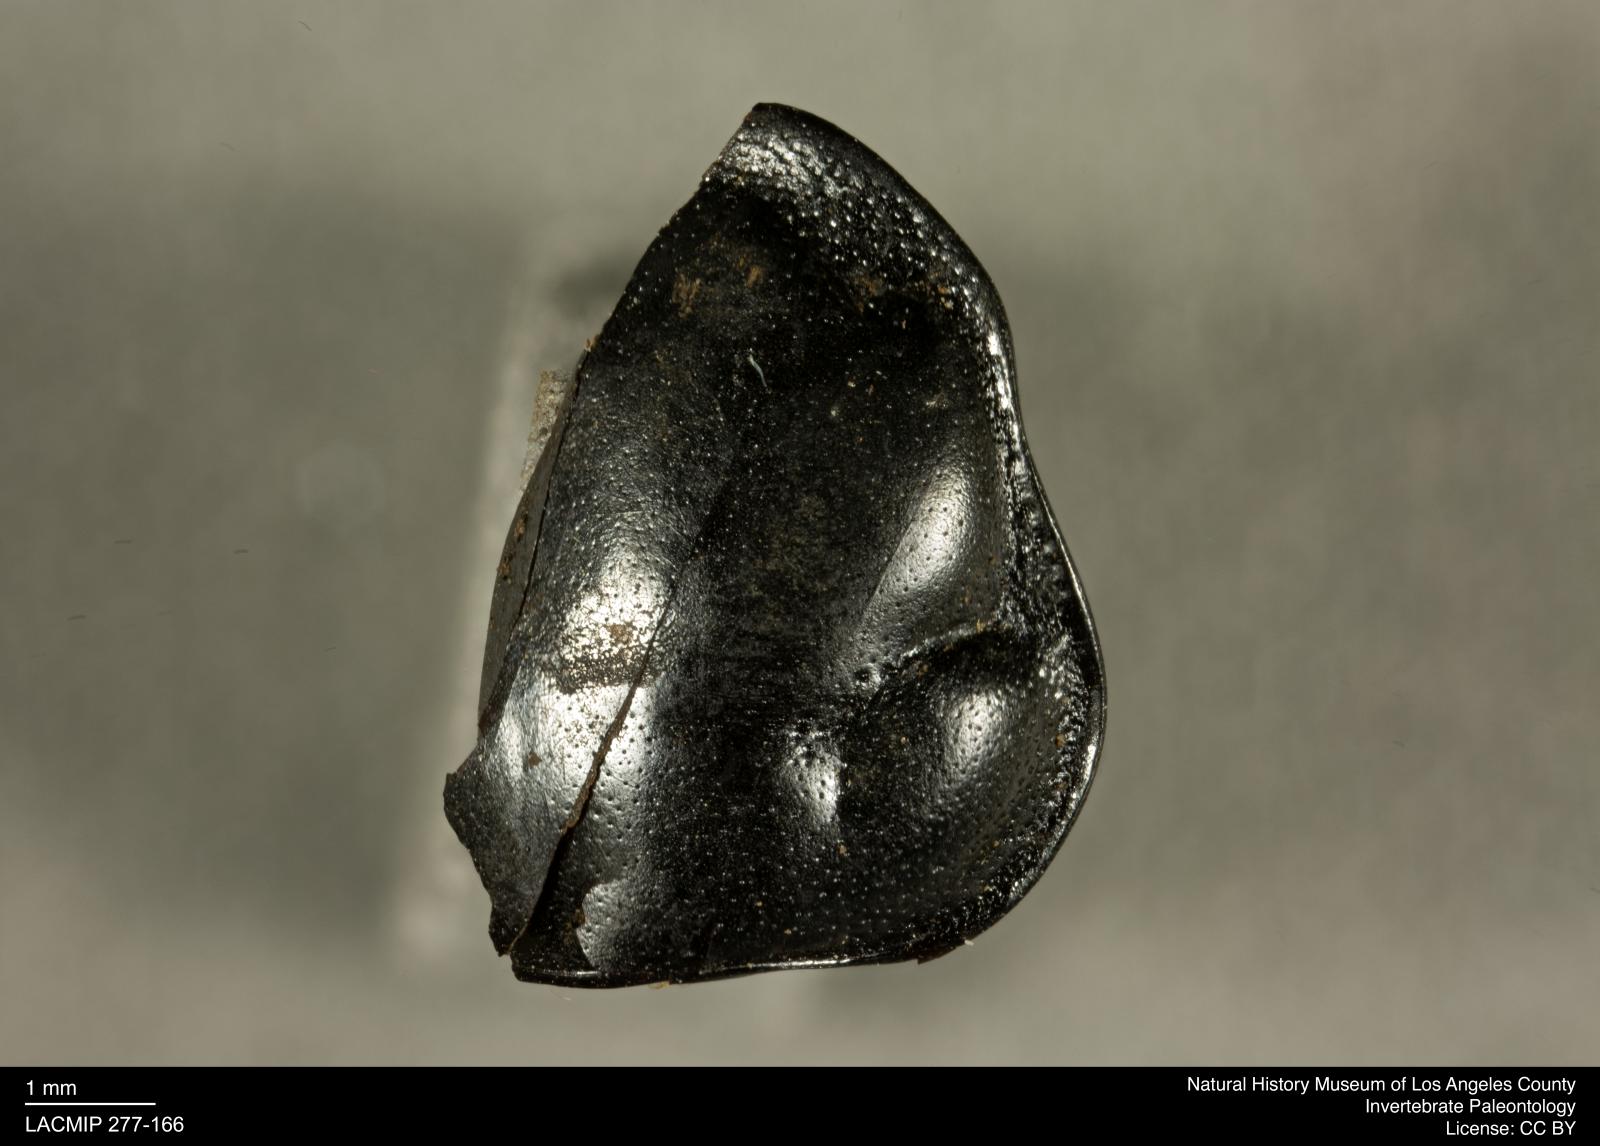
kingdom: Animalia
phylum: Arthropoda
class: Insecta
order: Coleoptera
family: Staphylinidae
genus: Nicrophorus
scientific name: Nicrophorus marginatus
